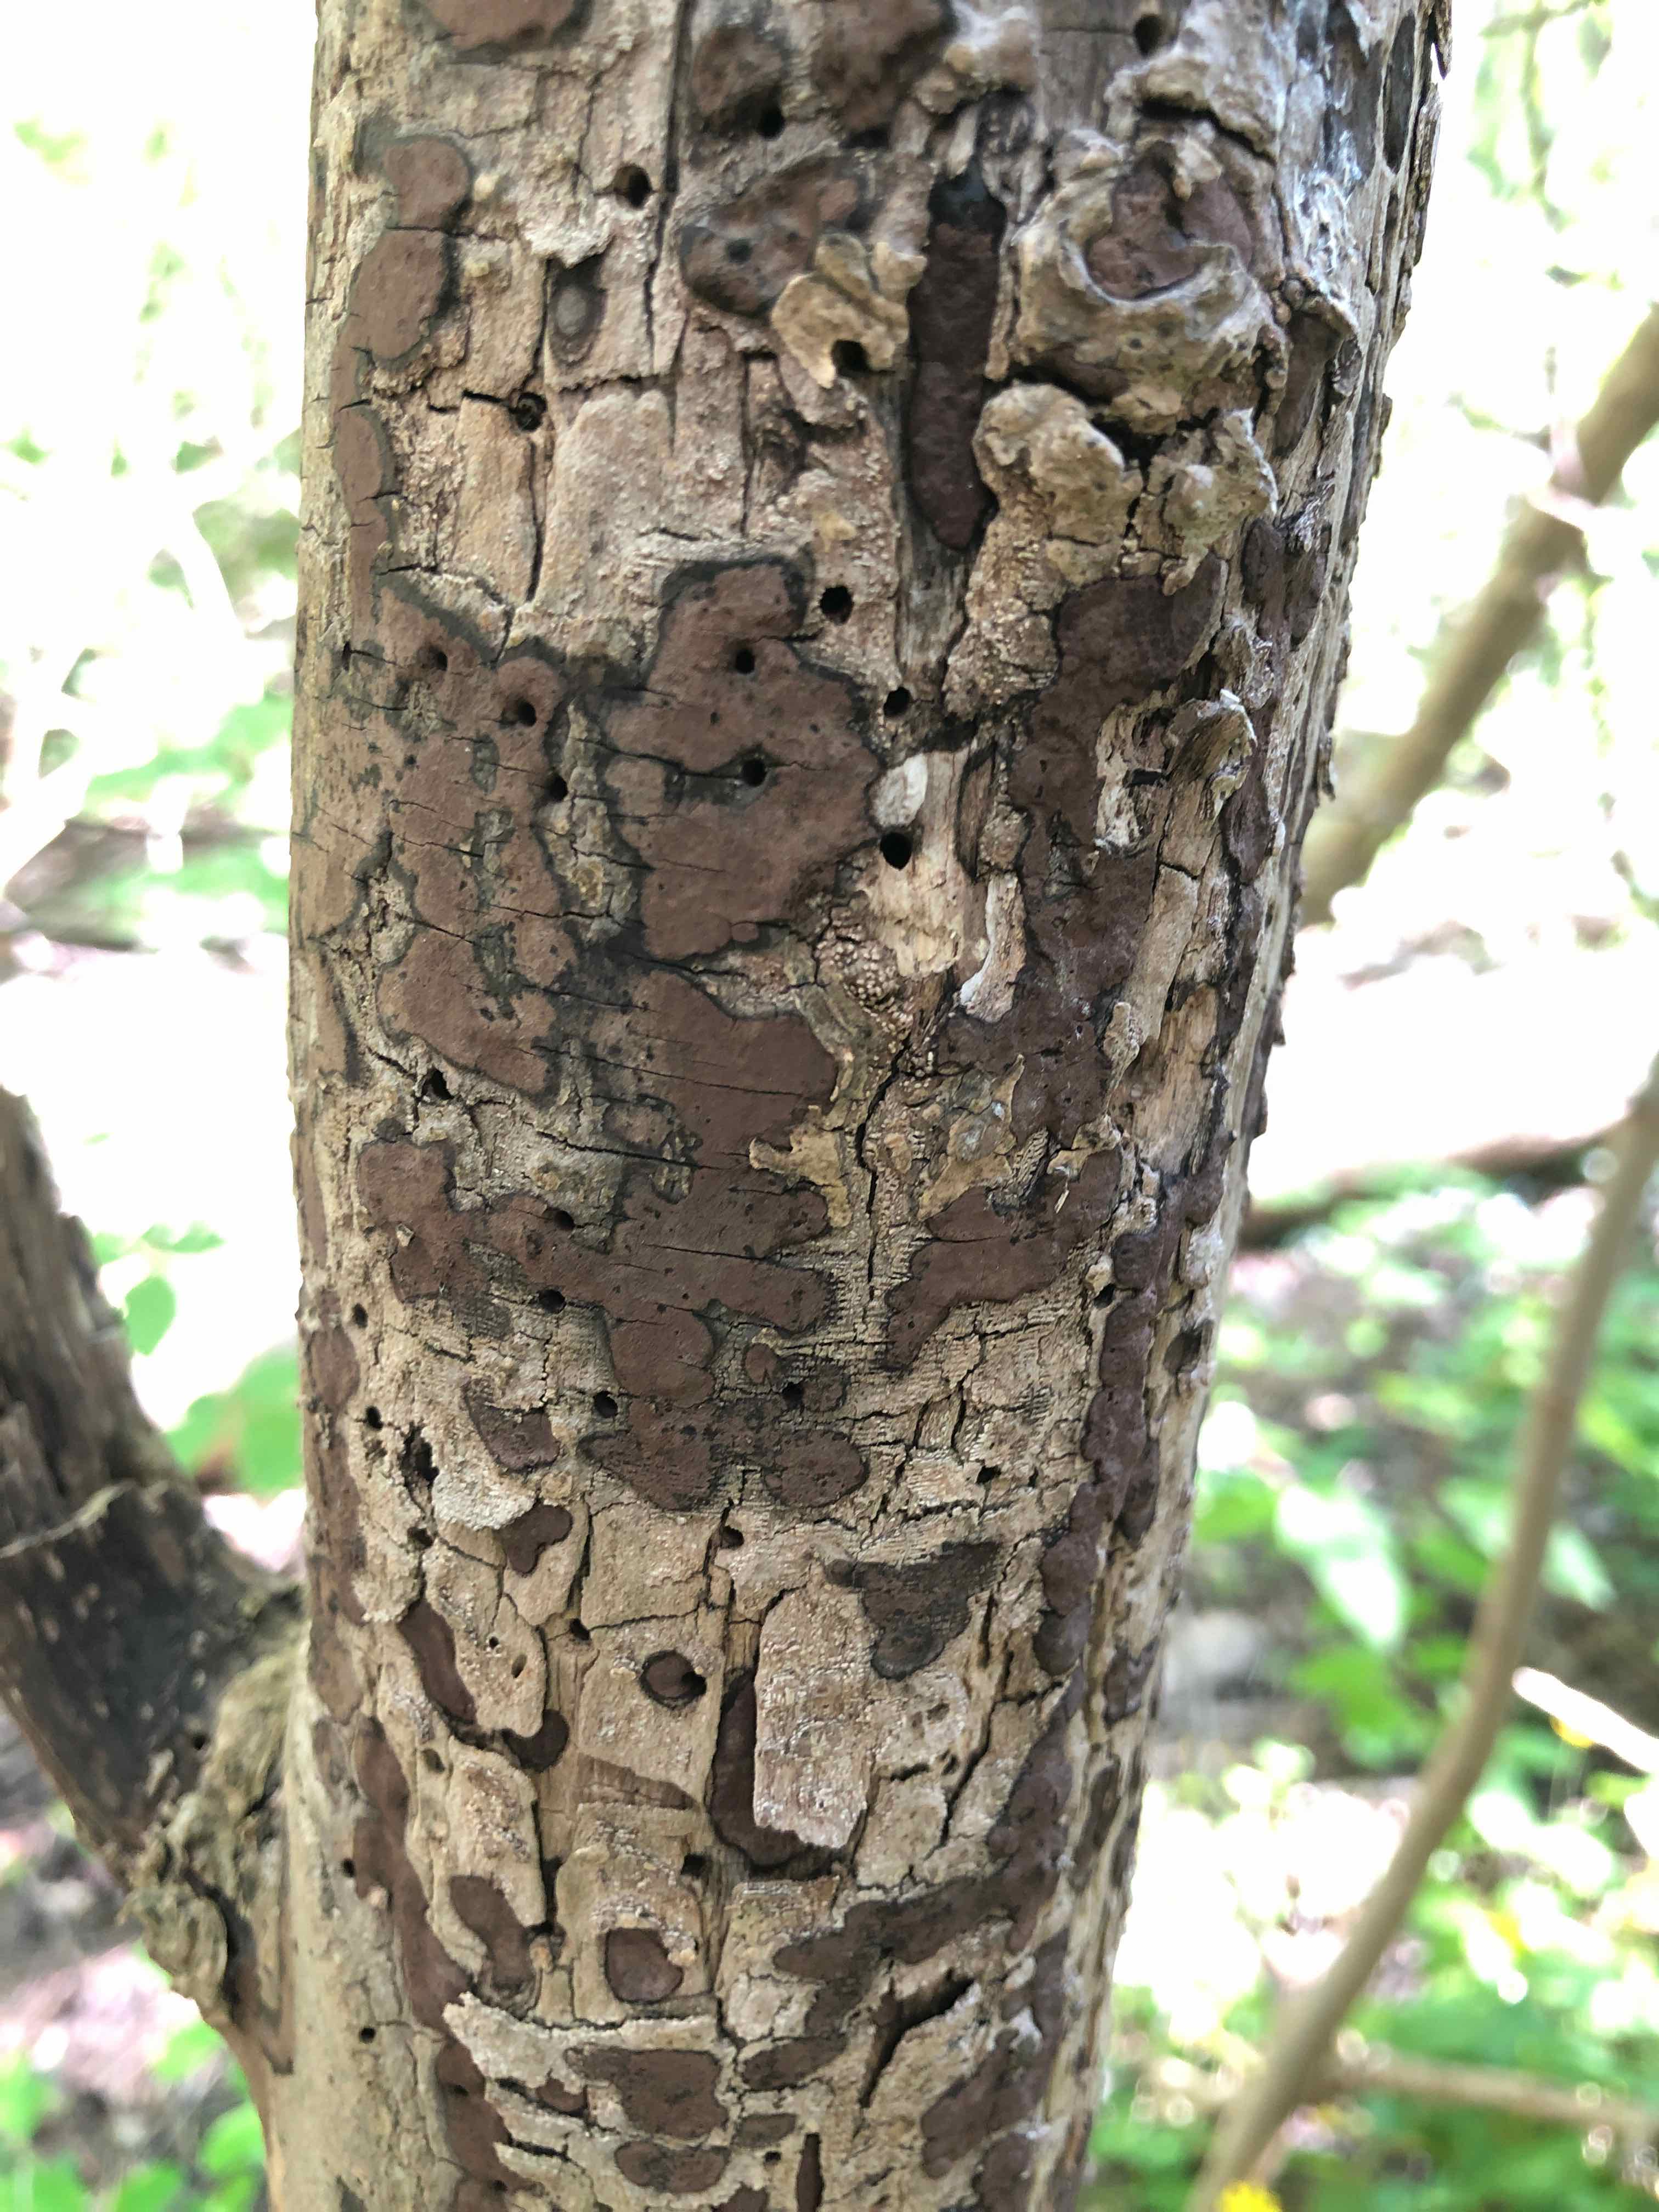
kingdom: Fungi
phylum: Ascomycota
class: Sordariomycetes
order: Xylariales
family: Hypoxylaceae
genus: Hypoxylon
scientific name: Hypoxylon petriniae
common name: nedsænket kulbær
